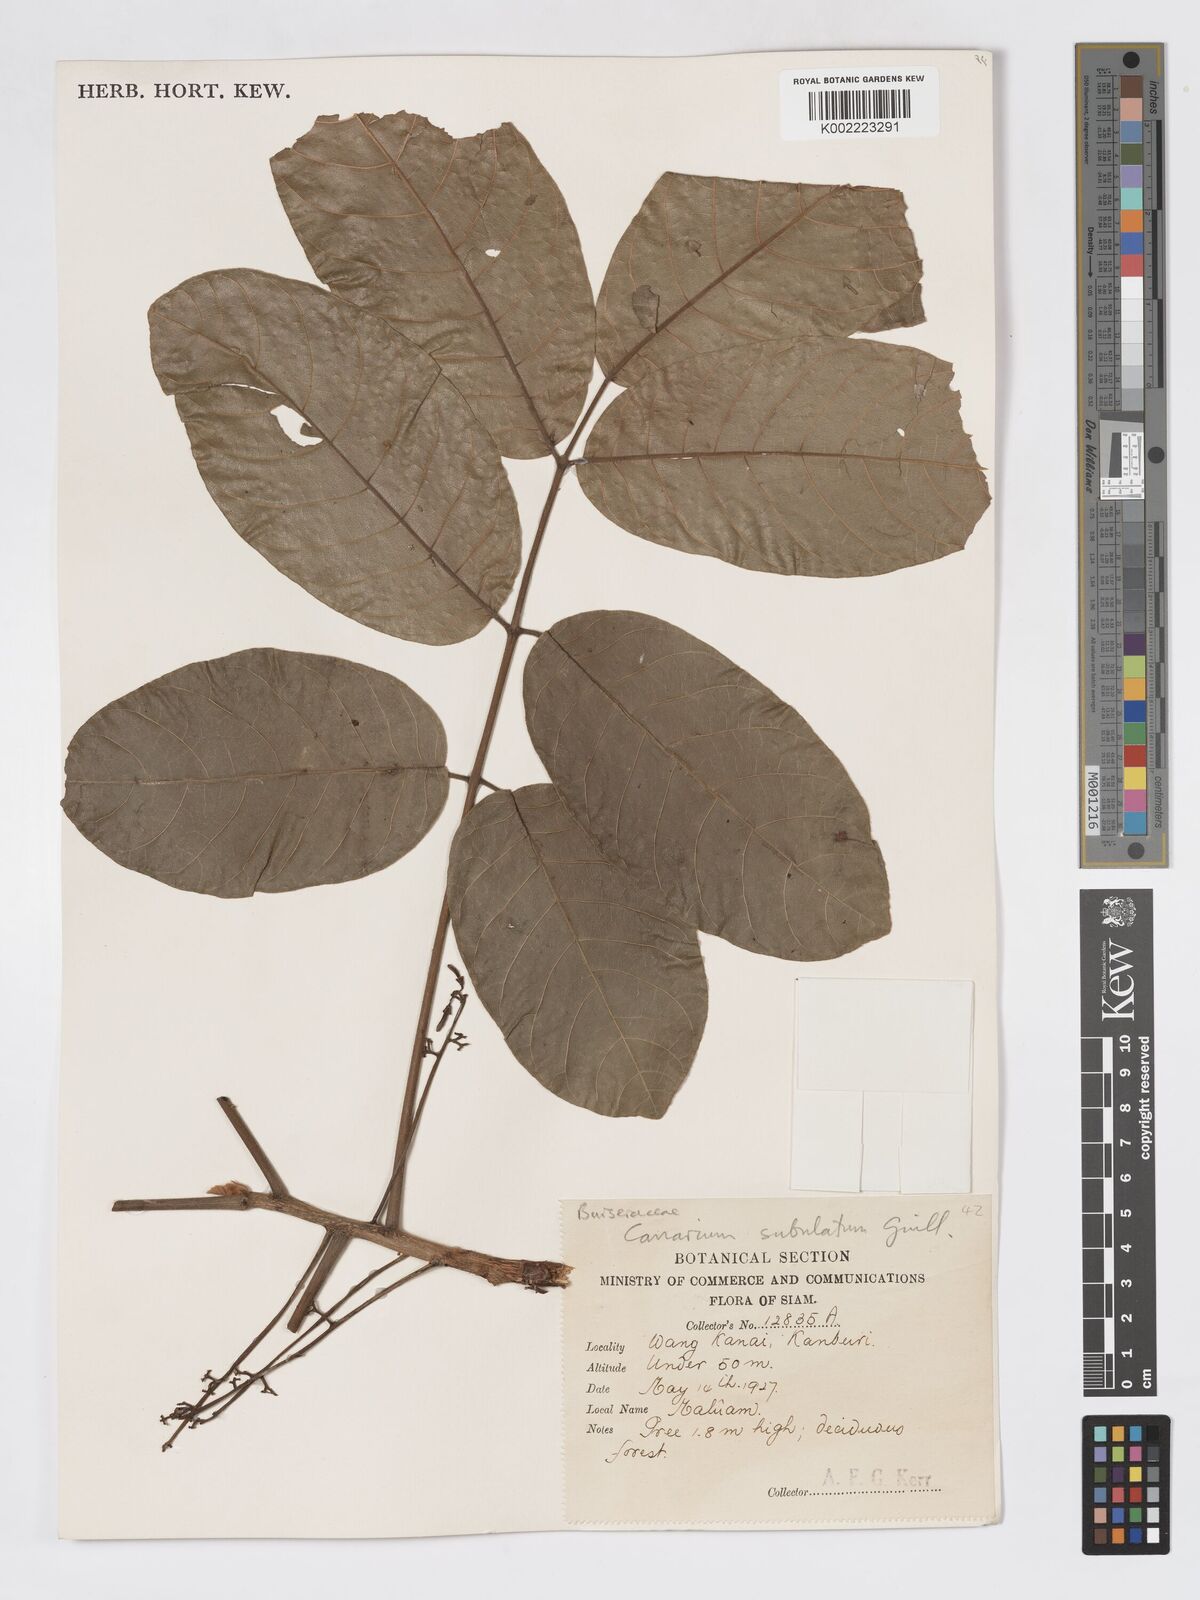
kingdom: Plantae
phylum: Tracheophyta
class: Magnoliopsida
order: Sapindales
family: Burseraceae
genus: Canarium
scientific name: Canarium subulatum
